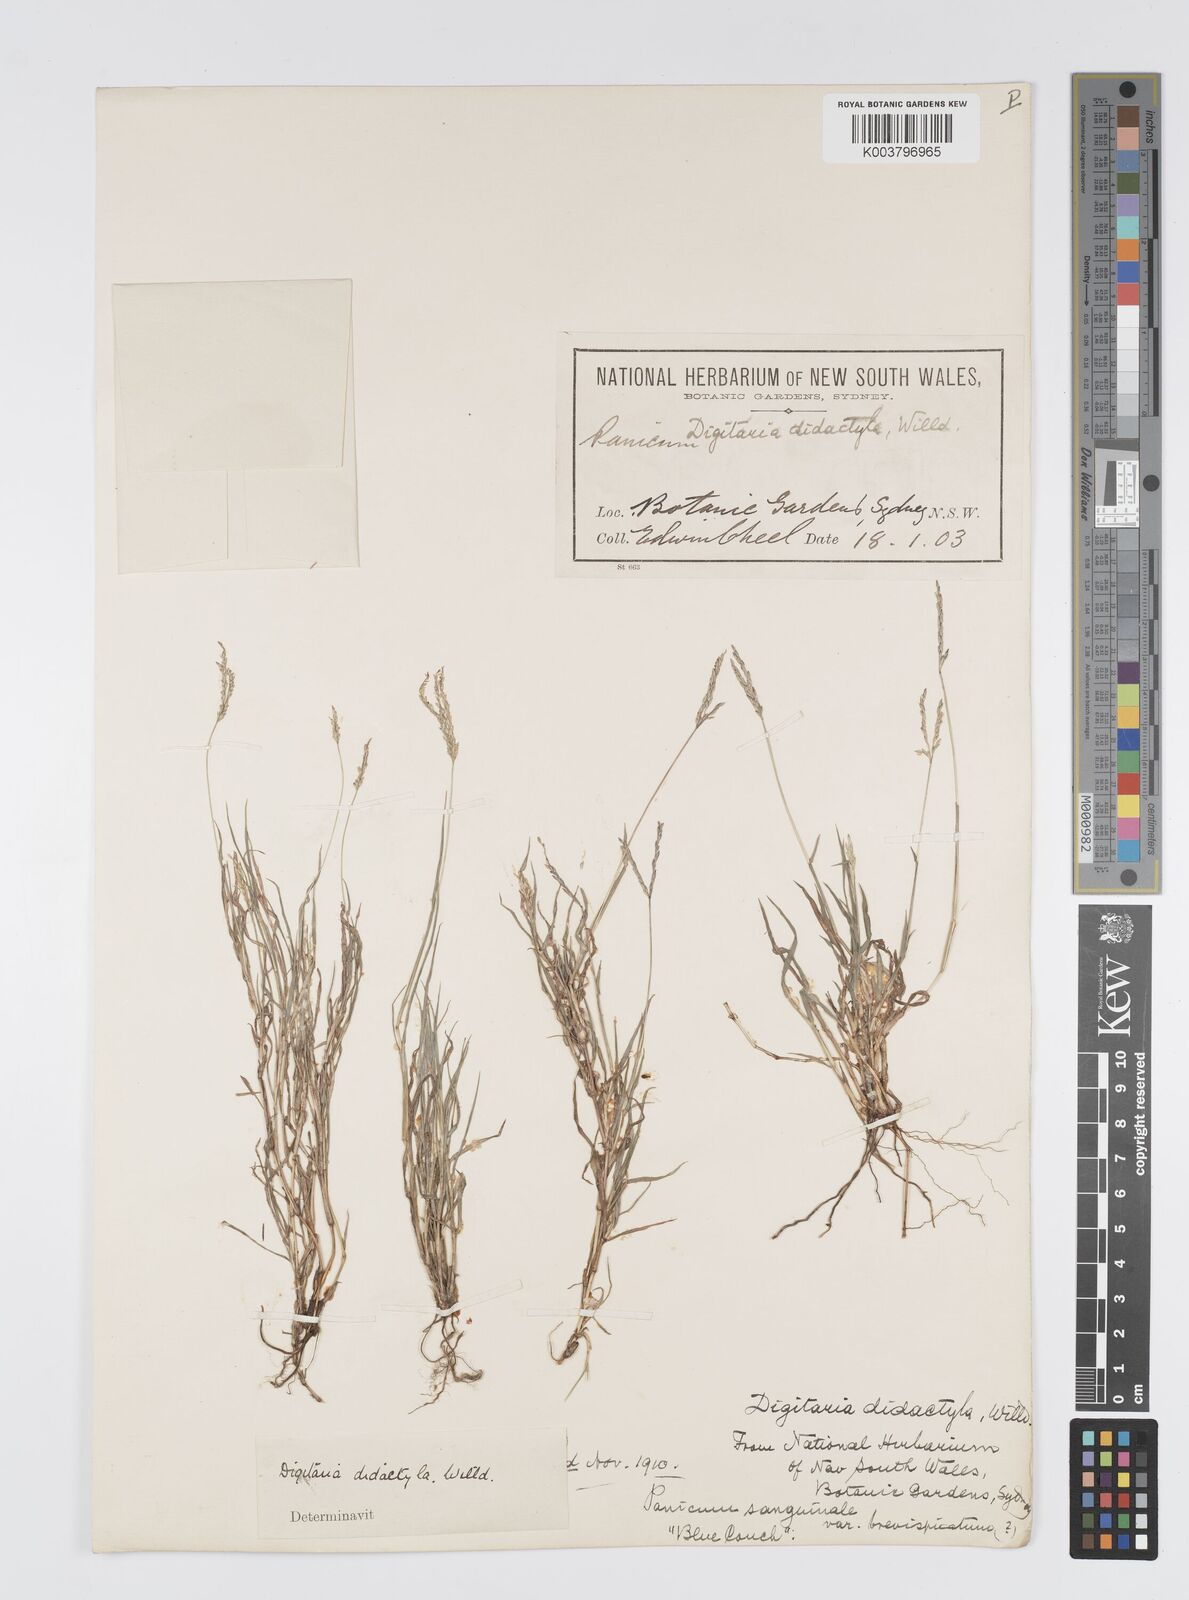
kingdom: Plantae
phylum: Tracheophyta
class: Liliopsida
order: Poales
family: Poaceae
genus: Digitaria
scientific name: Digitaria didactyla
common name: Blue couch
